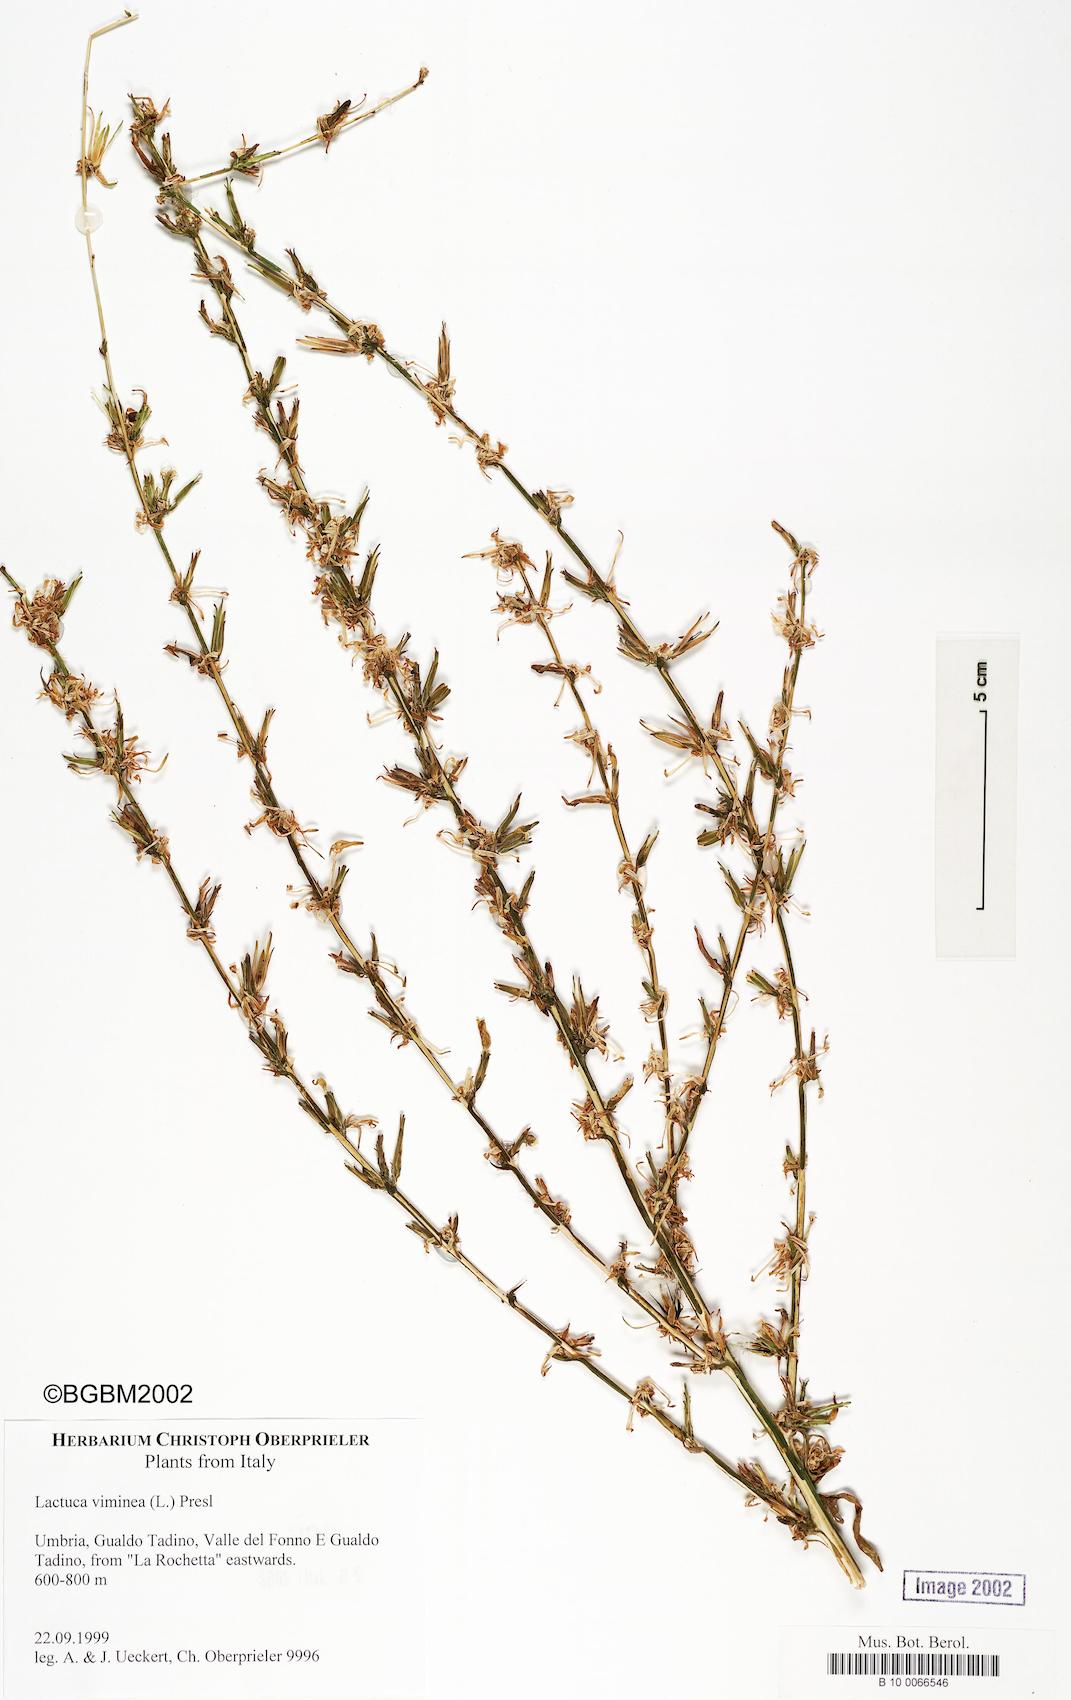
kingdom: Plantae
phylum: Tracheophyta
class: Magnoliopsida
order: Asterales
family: Asteraceae
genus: Lactuca
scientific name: Lactuca viminea
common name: Pliant lettuce
